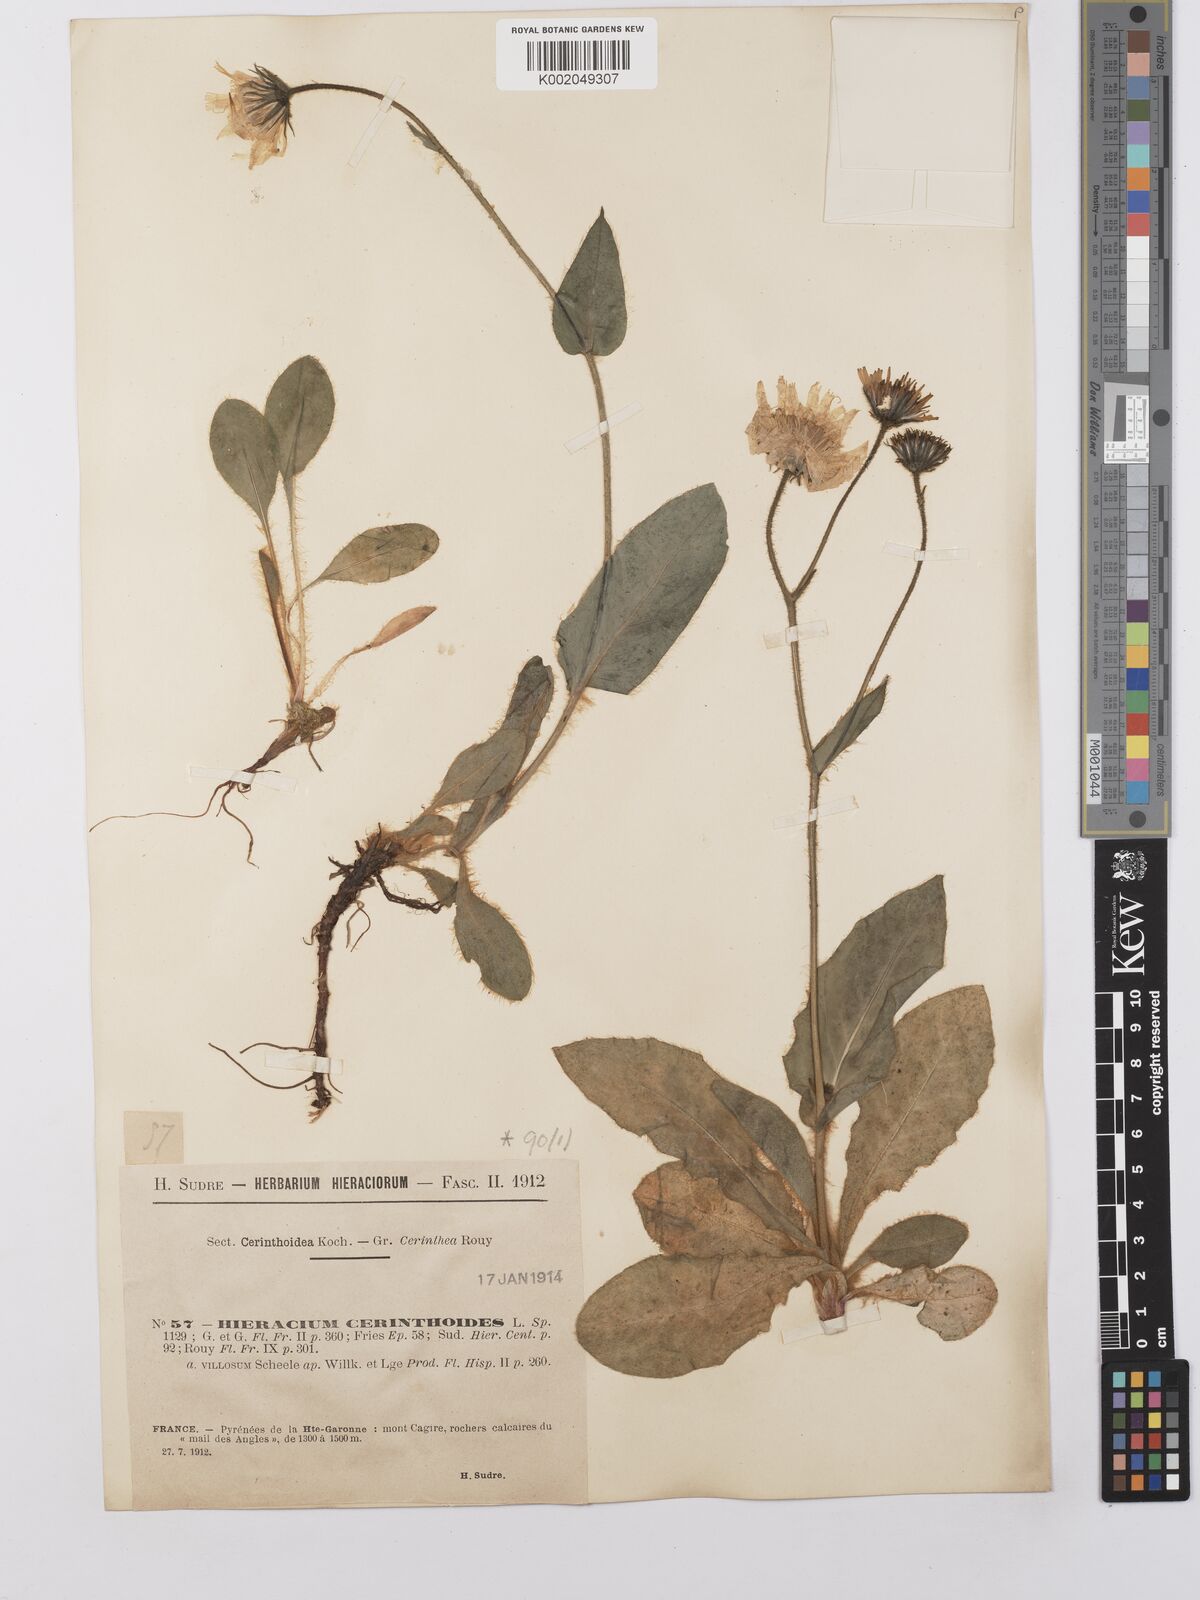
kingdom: Plantae
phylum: Tracheophyta
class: Magnoliopsida
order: Asterales
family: Asteraceae
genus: Hieracium
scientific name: Hieracium cerinthoides
